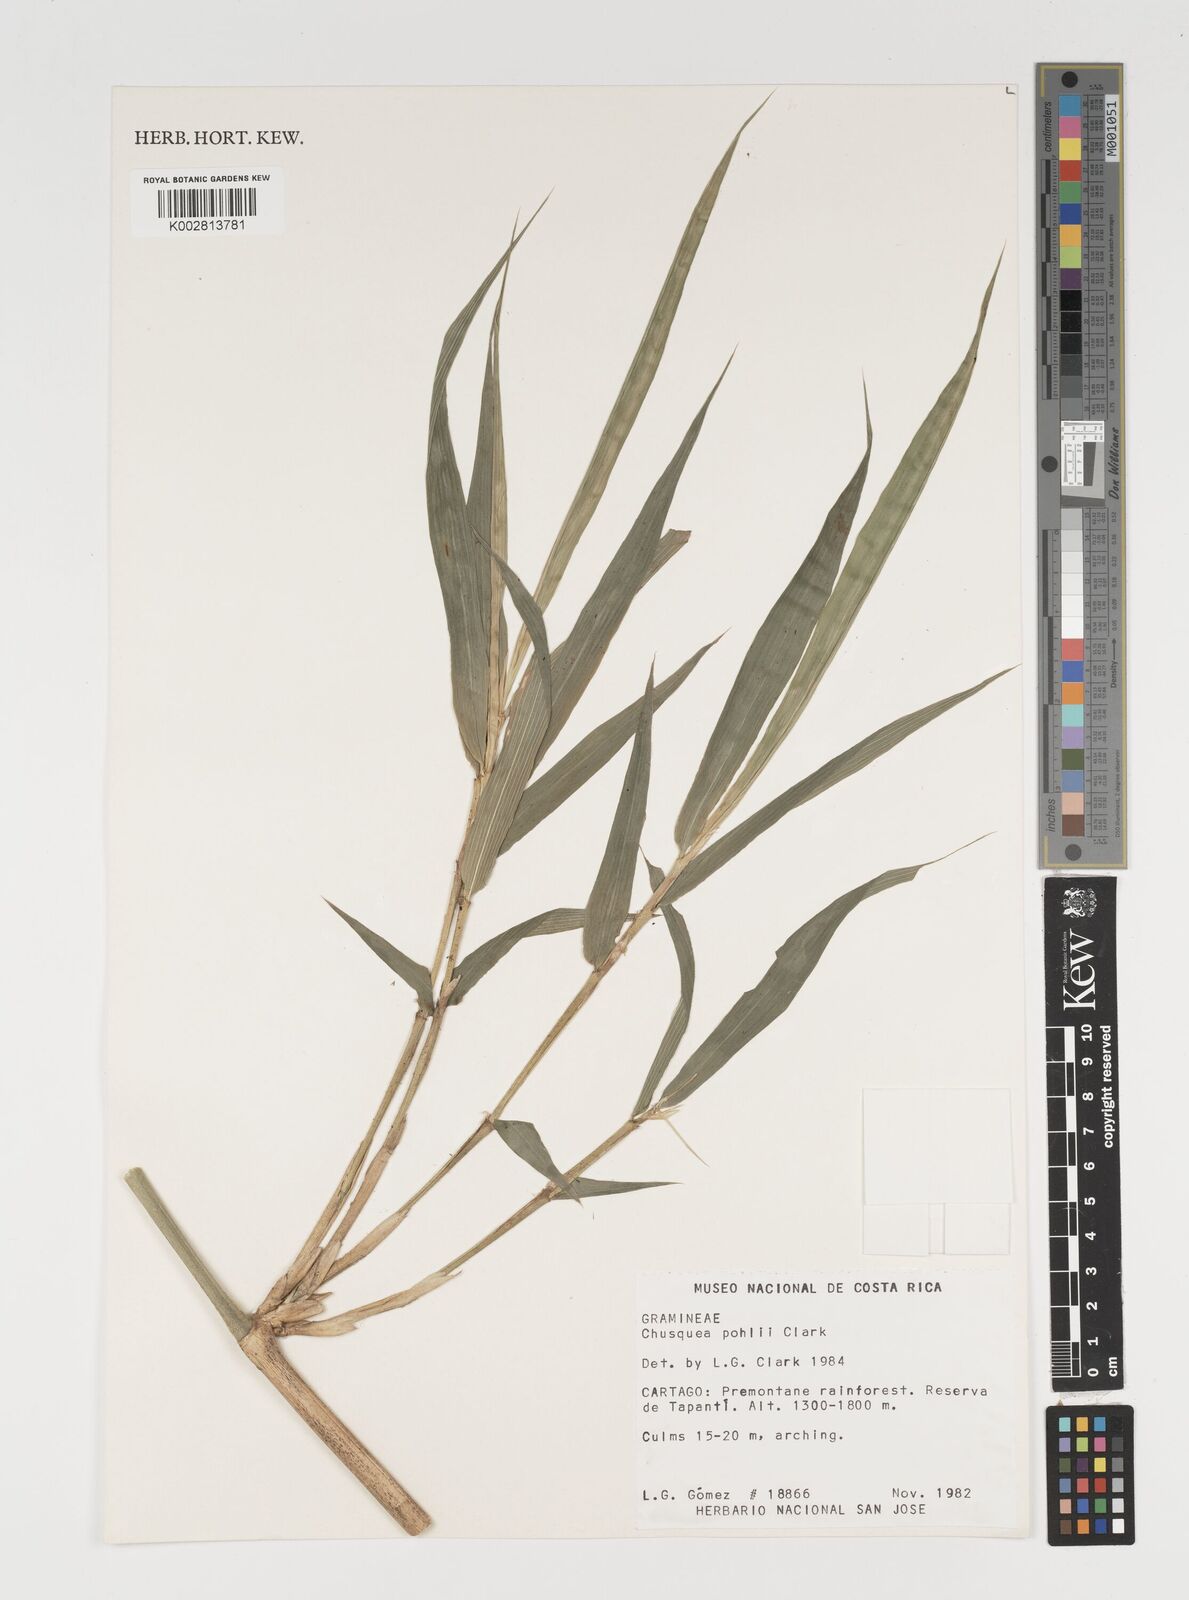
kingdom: Plantae
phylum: Tracheophyta
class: Liliopsida
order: Poales
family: Poaceae
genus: Chusquea
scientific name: Chusquea pohlii
